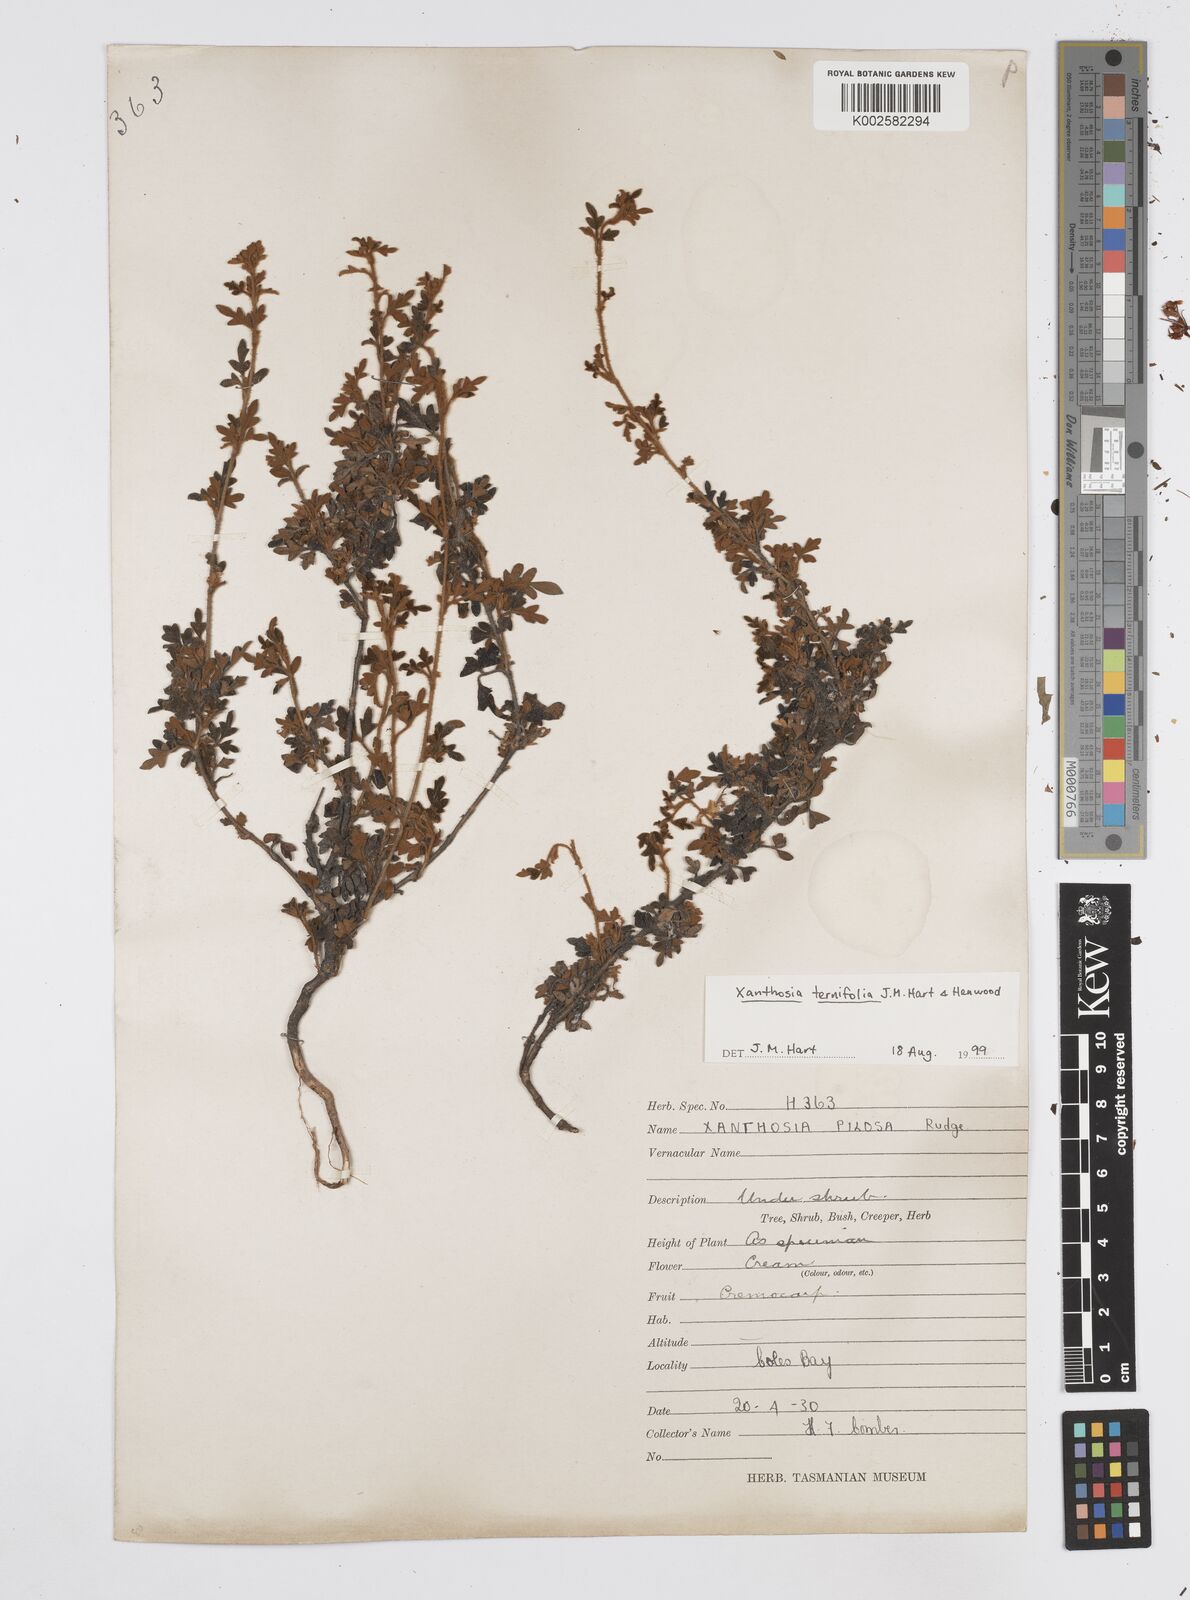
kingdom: Plantae
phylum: Tracheophyta
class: Magnoliopsida
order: Apiales
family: Apiaceae
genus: Xanthosia
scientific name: Xanthosia ternifolia
